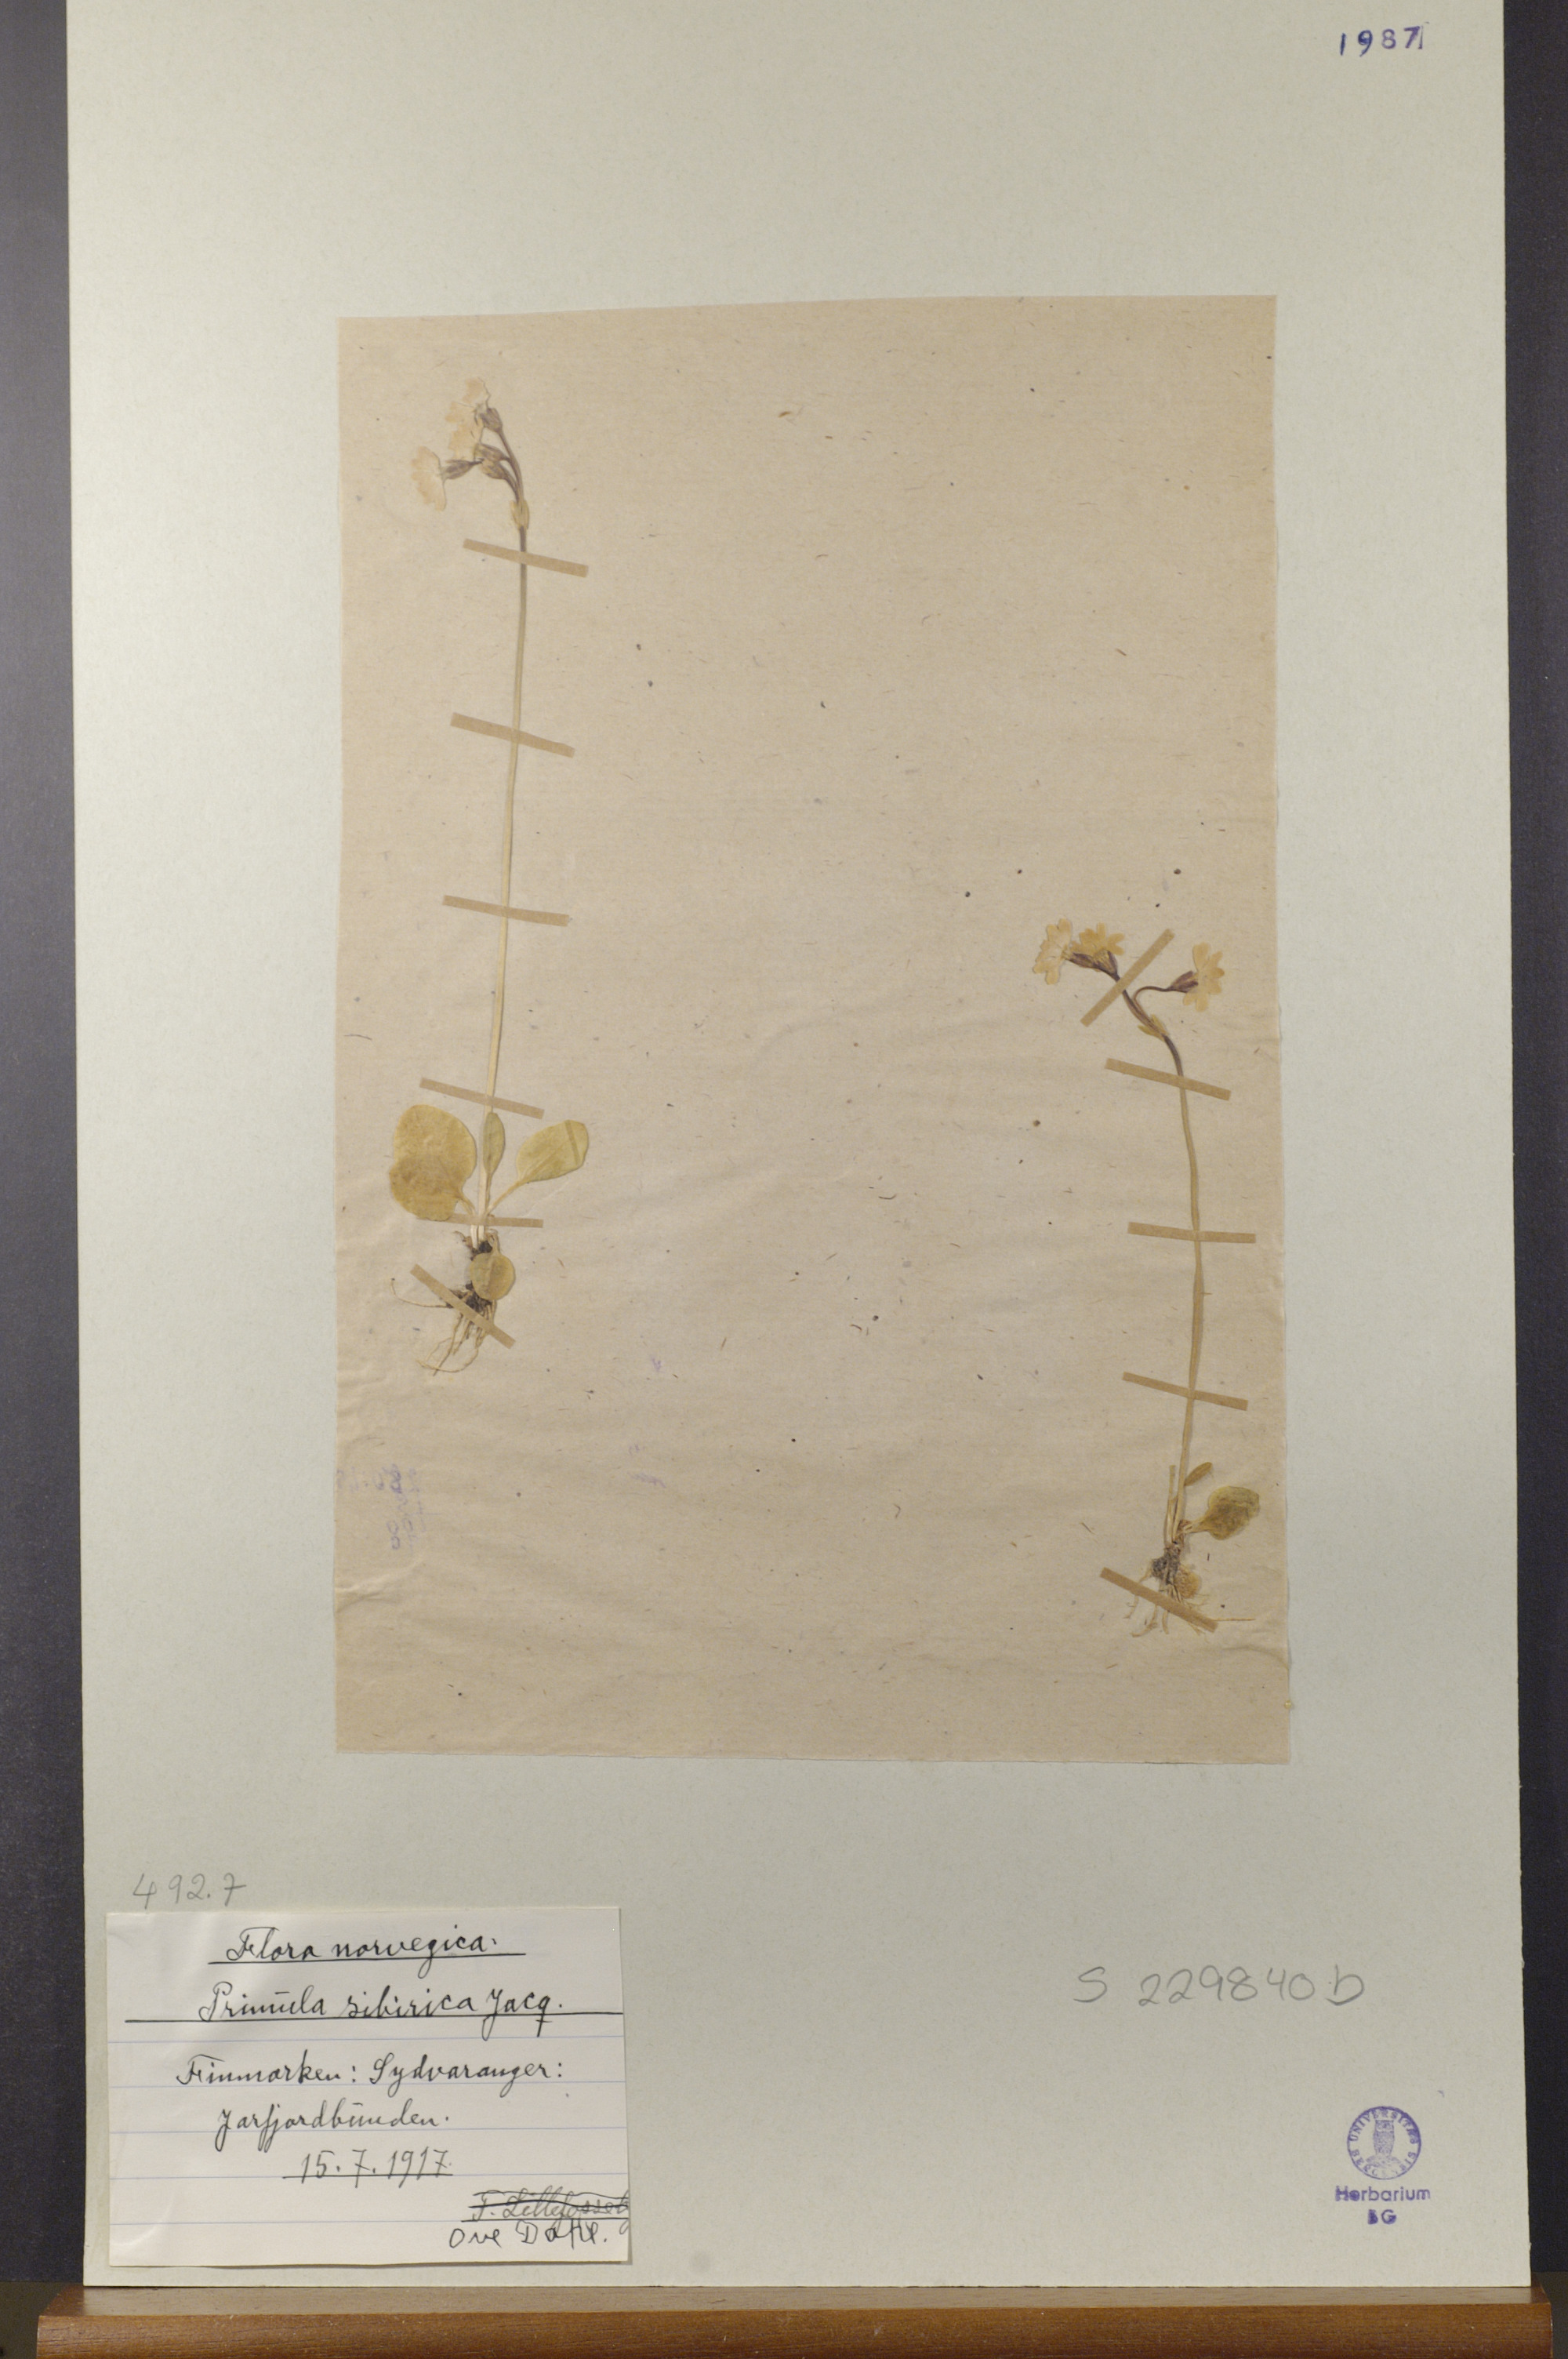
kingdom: Plantae
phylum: Tracheophyta
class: Magnoliopsida
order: Ericales
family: Primulaceae
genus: Primula
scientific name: Primula nutans
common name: Siberian primrose
